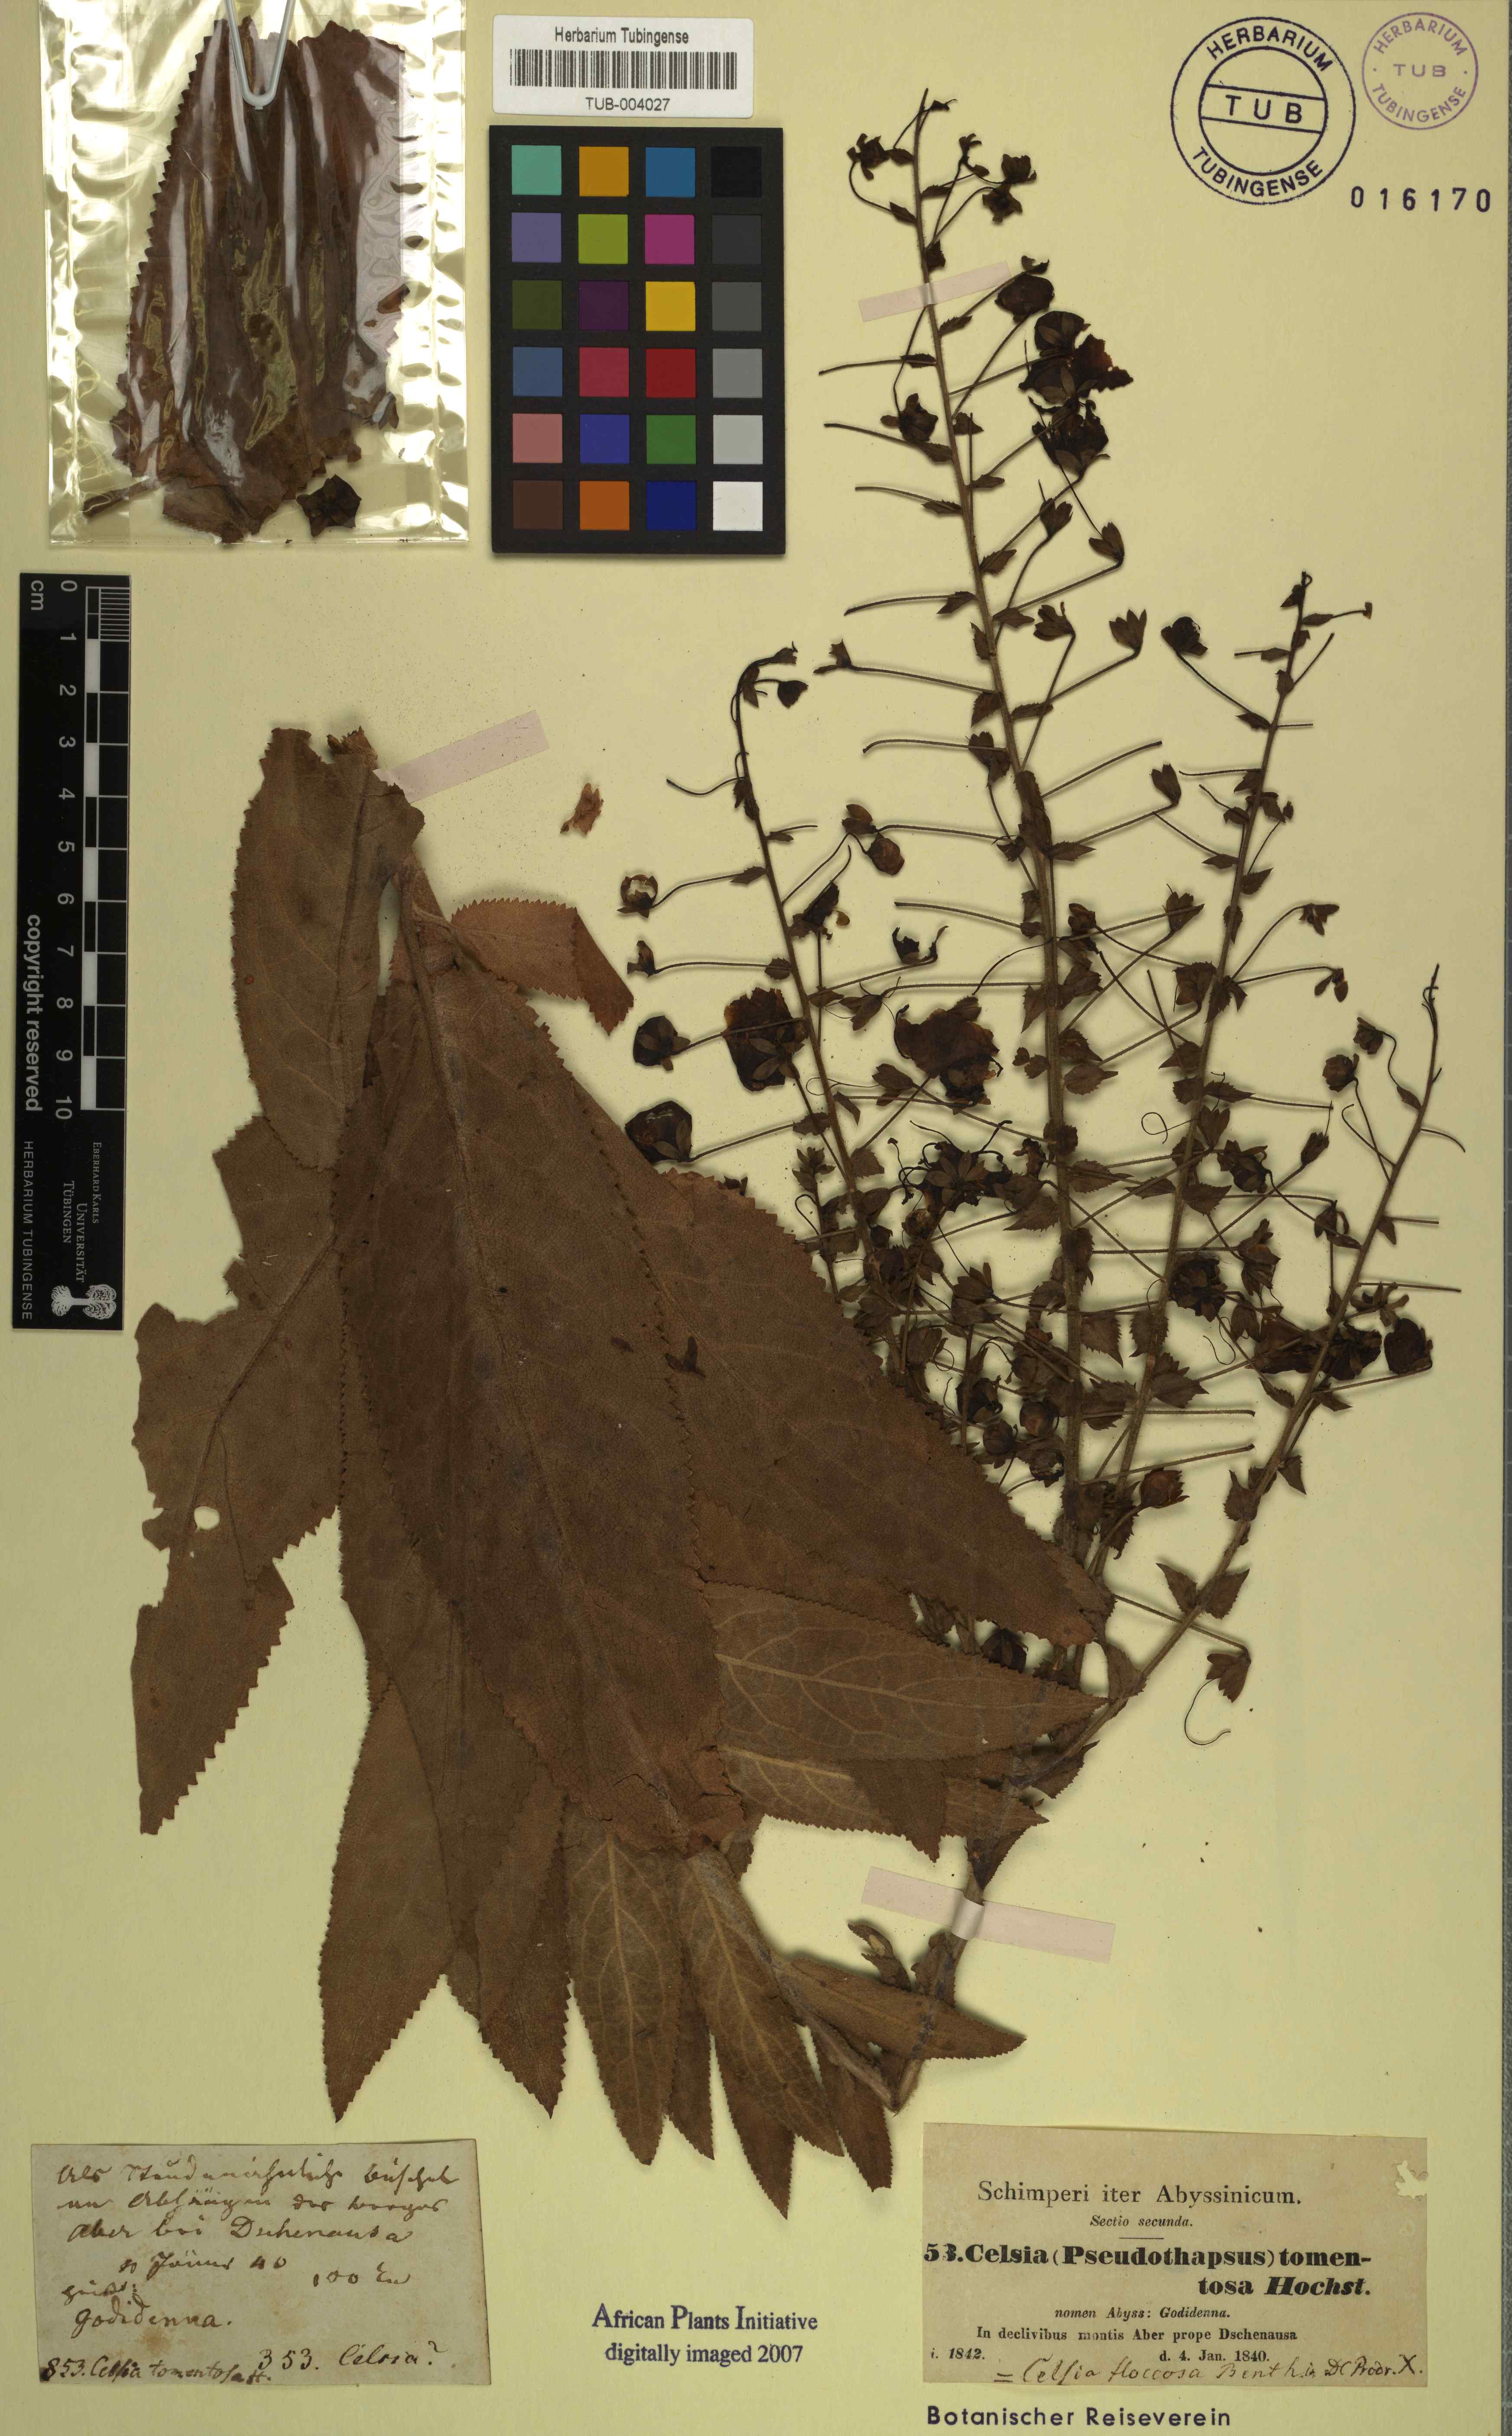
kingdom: Plantae
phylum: Tracheophyta
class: Magnoliopsida
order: Lamiales
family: Scrophulariaceae
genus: Verbascum
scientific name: Verbascum benthamianum
